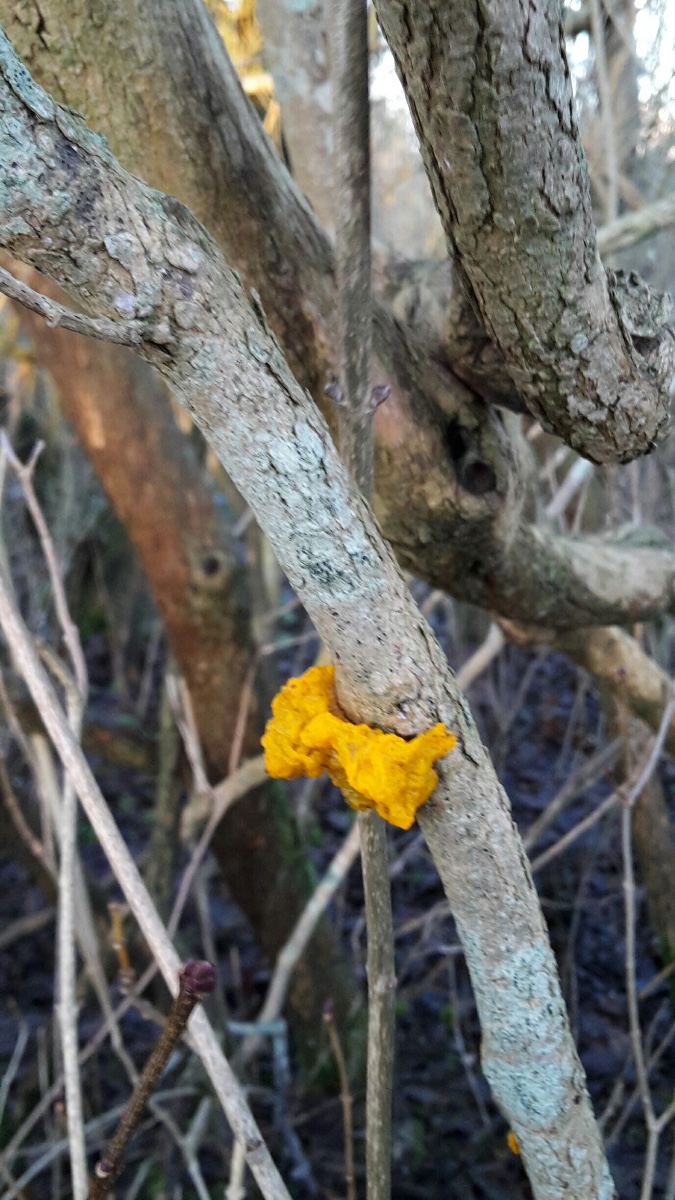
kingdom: Fungi
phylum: Basidiomycota
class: Tremellomycetes
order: Tremellales
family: Tremellaceae
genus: Tremella
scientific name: Tremella mesenterica
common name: gul bævresvamp
